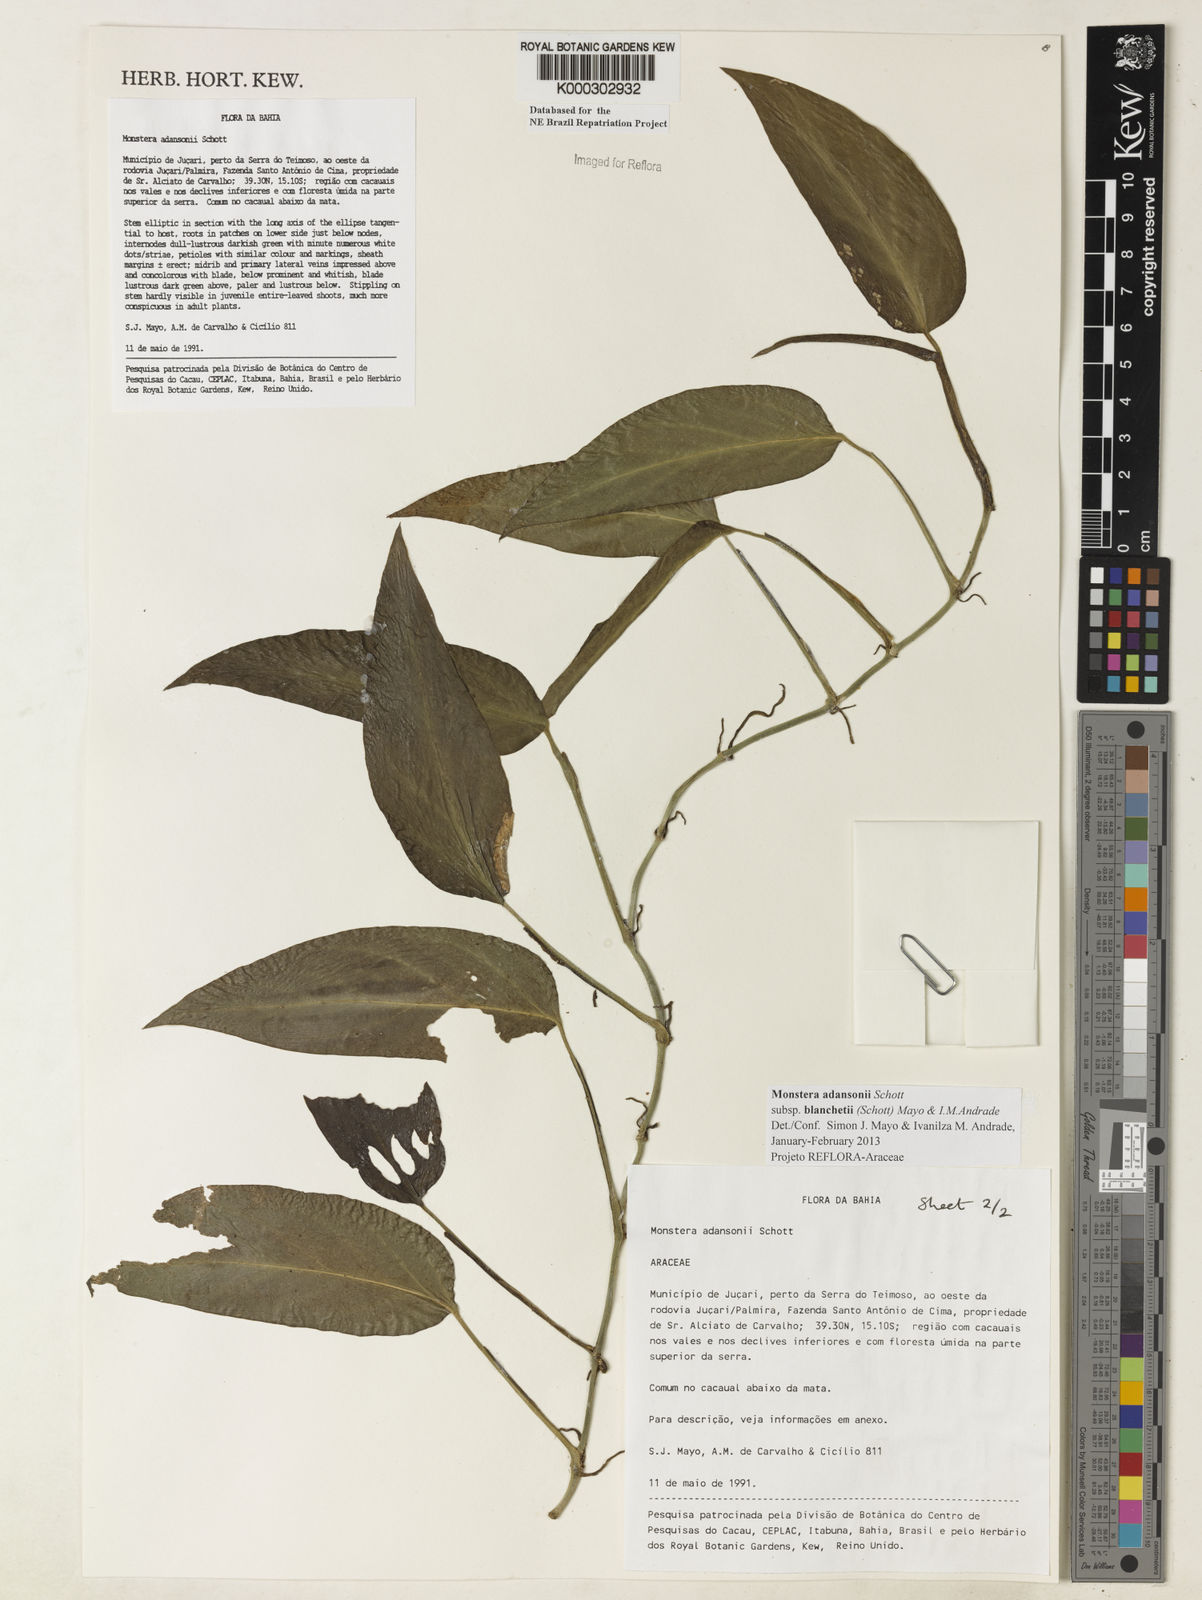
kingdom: Plantae
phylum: Tracheophyta
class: Liliopsida
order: Alismatales
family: Araceae
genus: Monstera
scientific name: Monstera adansonii
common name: Tarovine
